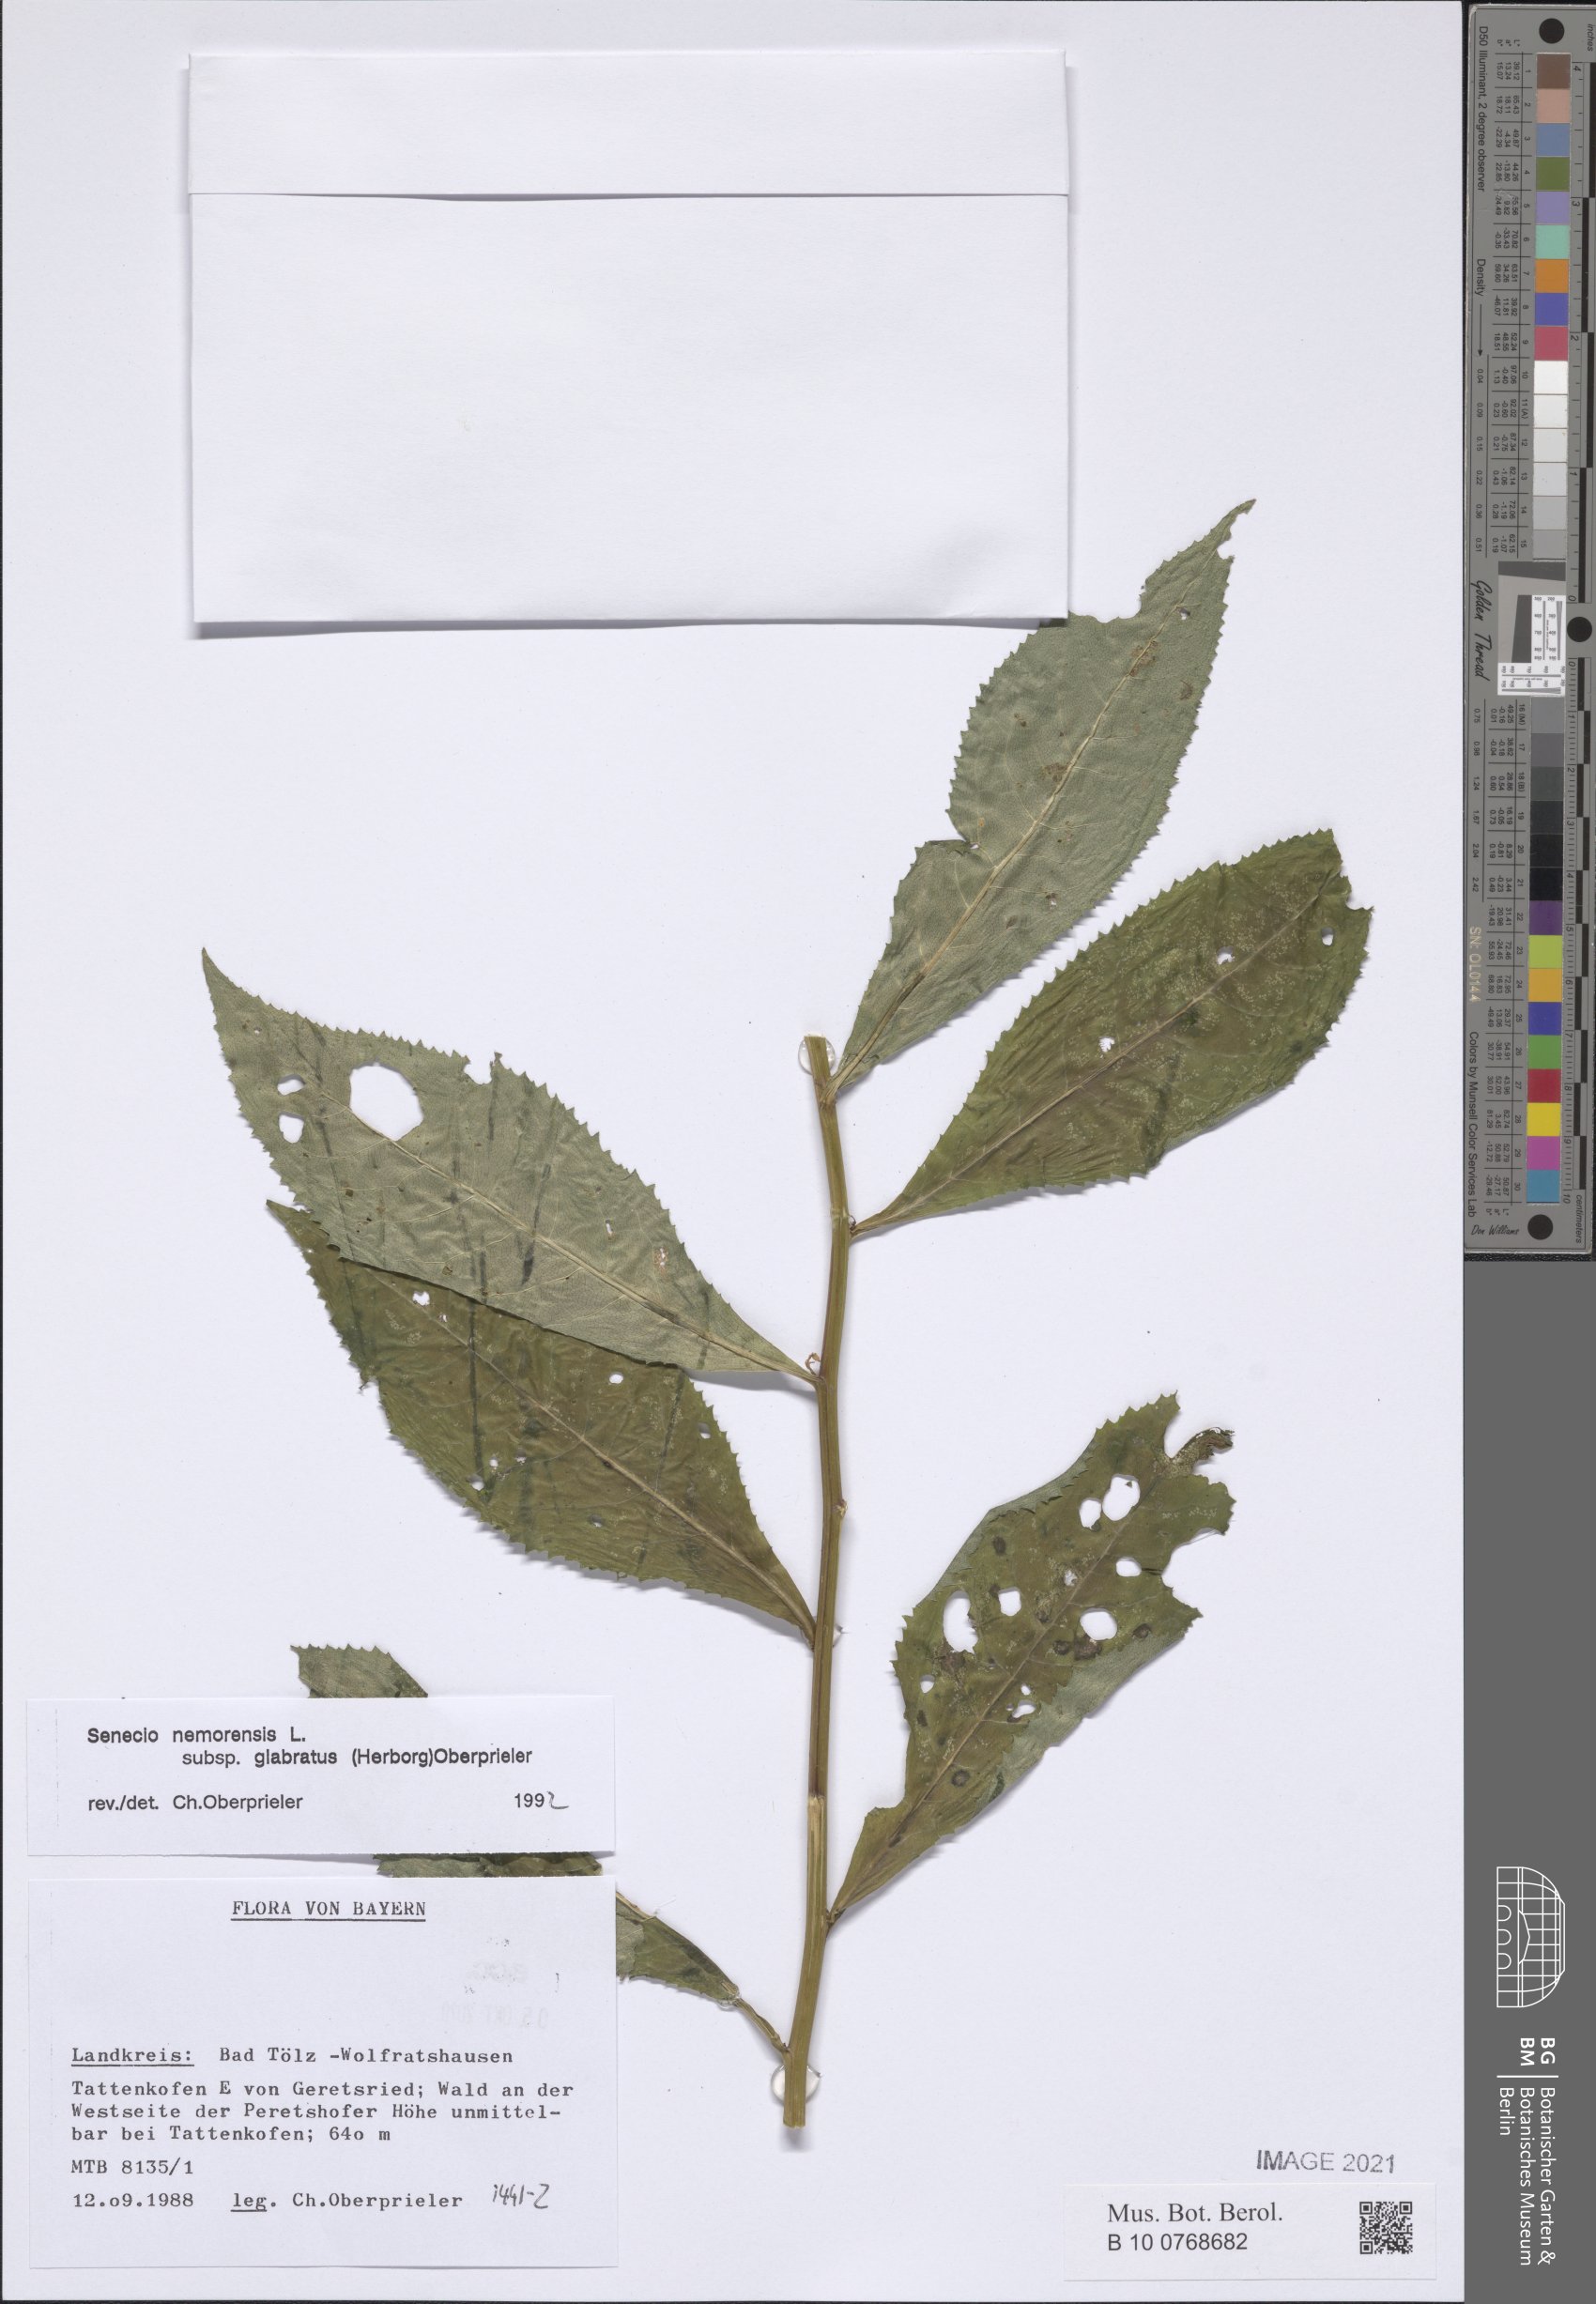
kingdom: Plantae
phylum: Tracheophyta
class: Magnoliopsida
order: Asterales
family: Asteraceae
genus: Senecio
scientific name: Senecio germanicus
